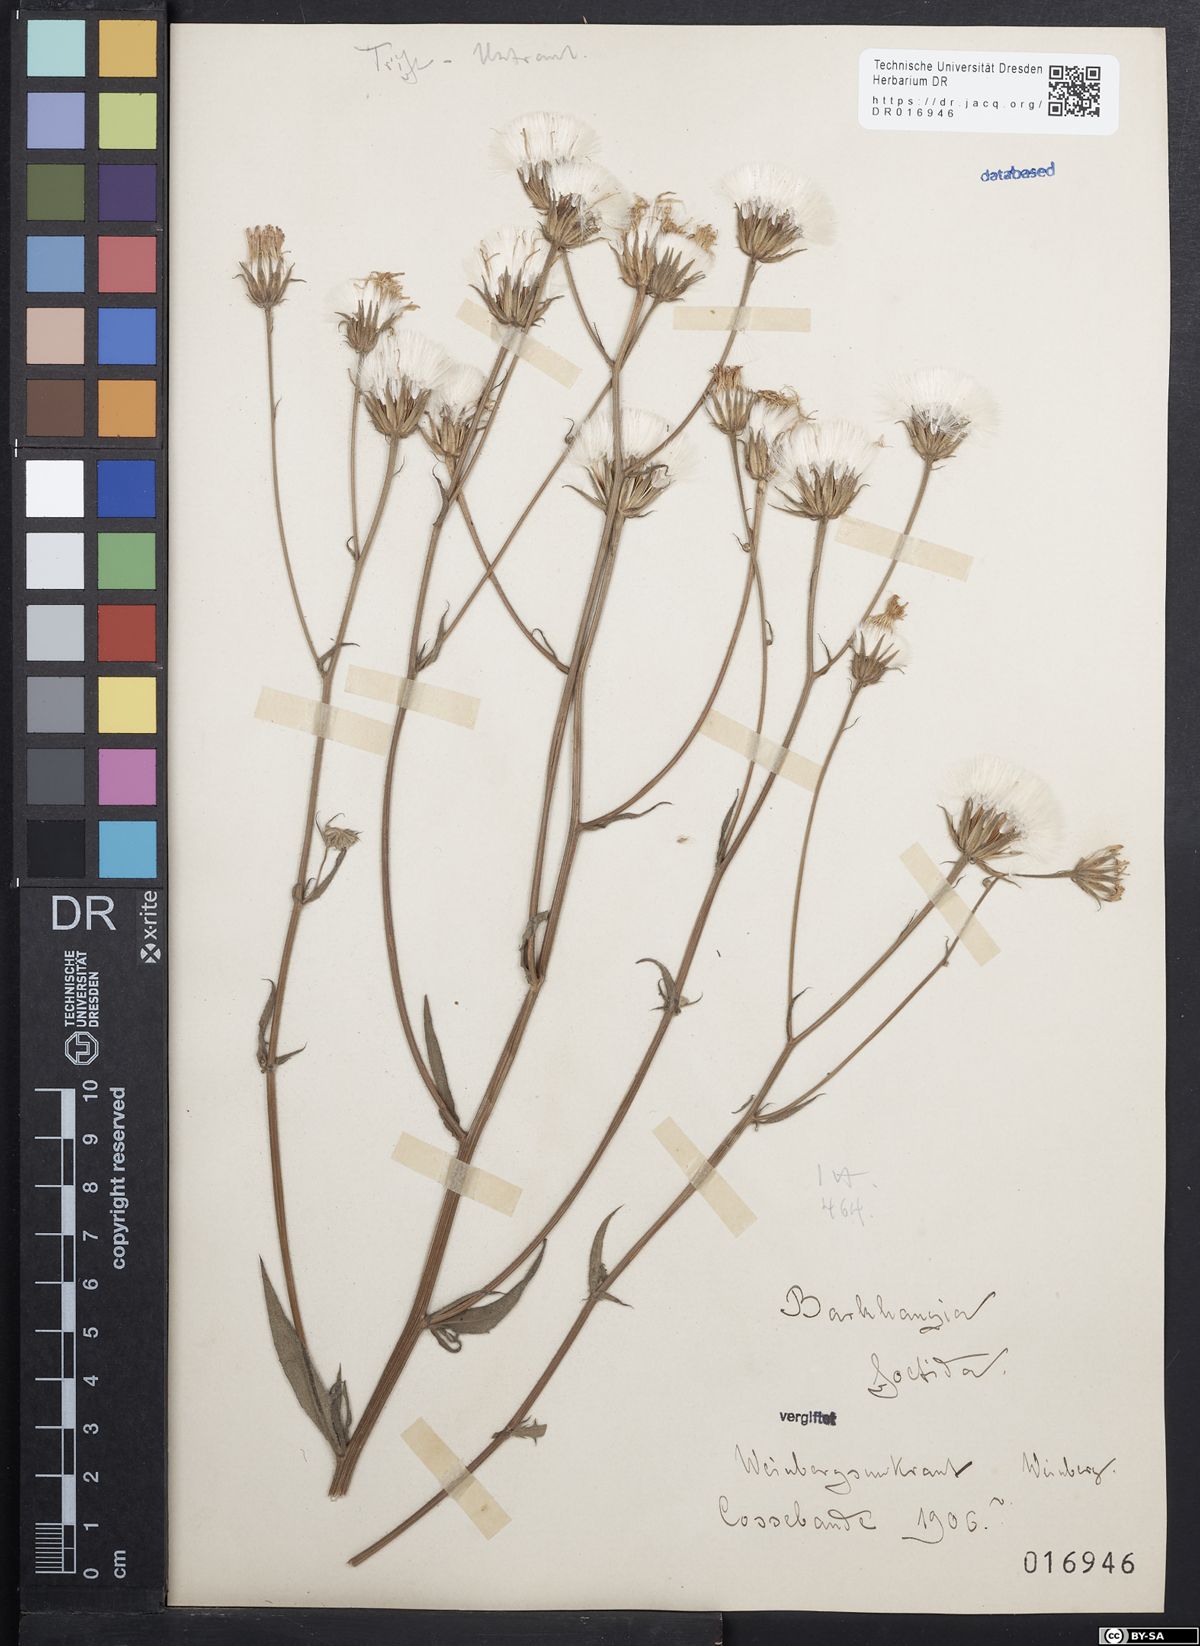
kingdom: Plantae
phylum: Tracheophyta
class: Magnoliopsida
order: Asterales
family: Asteraceae
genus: Crepis
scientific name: Crepis foetida
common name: Stinking hawk's-beard
